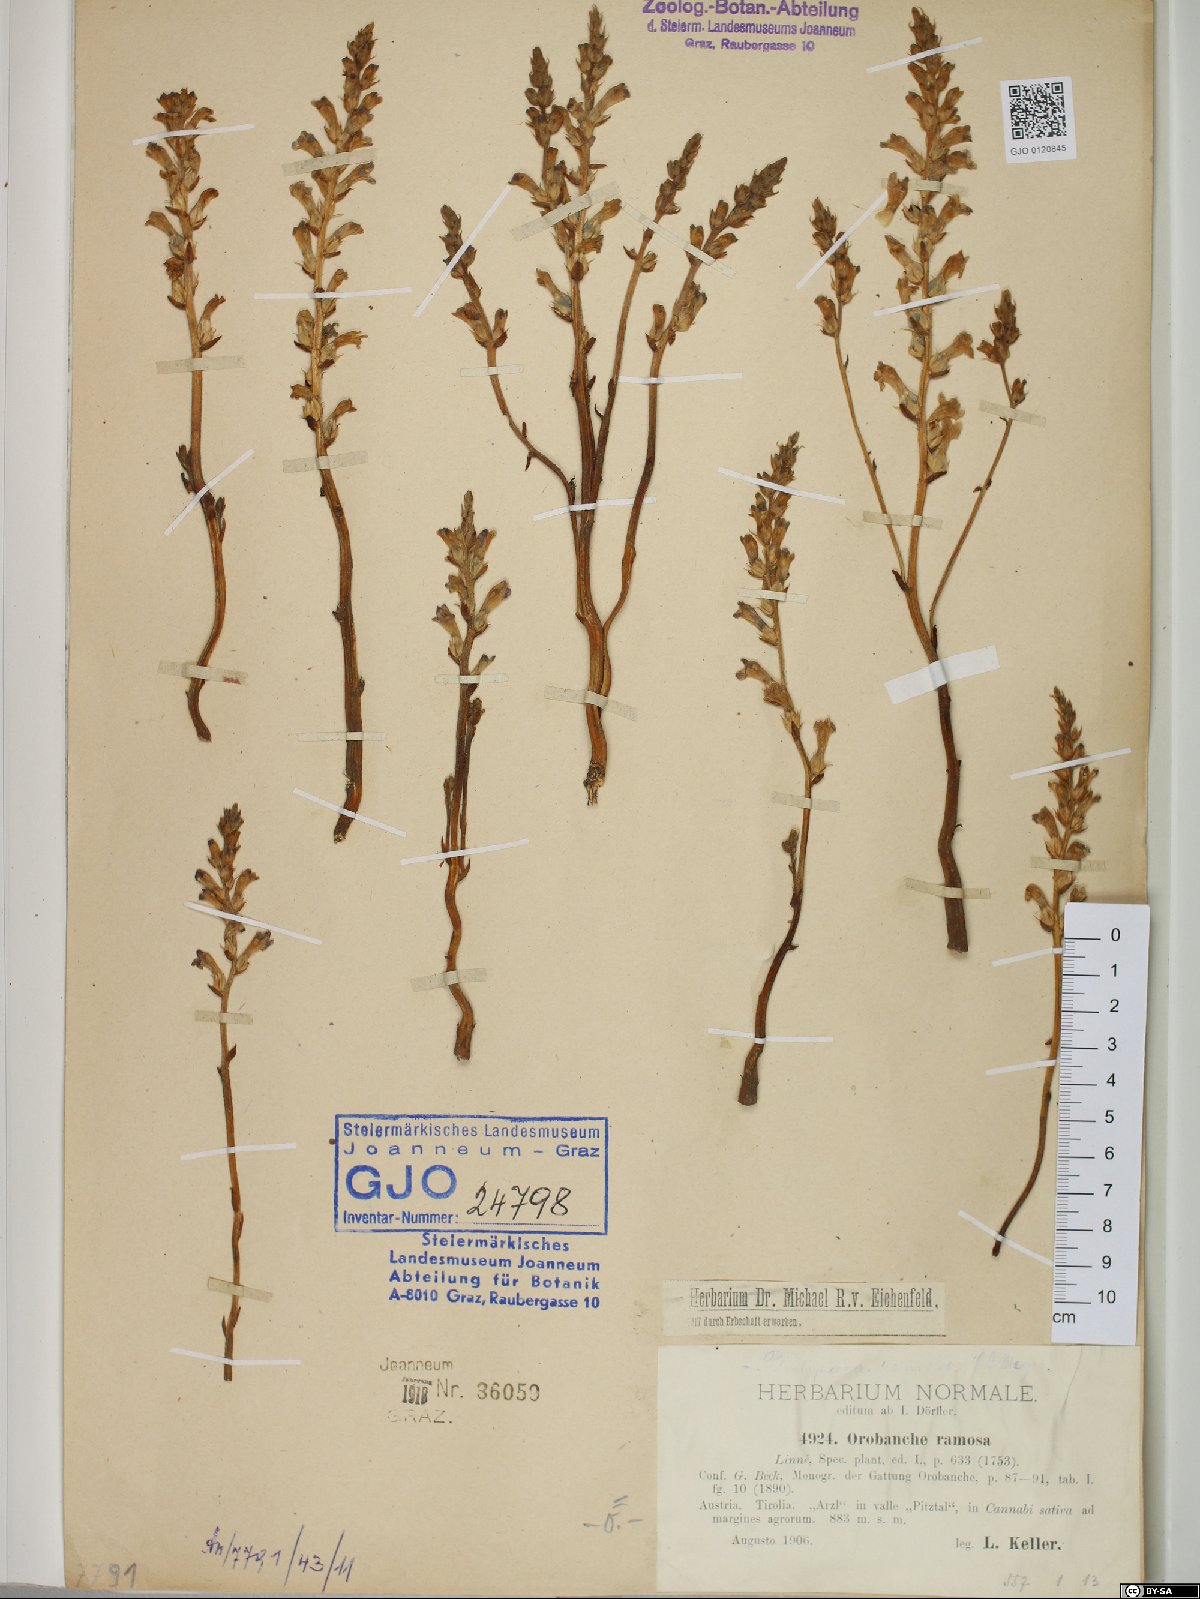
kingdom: Plantae
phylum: Tracheophyta
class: Magnoliopsida
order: Lamiales
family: Orobanchaceae
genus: Phelipanche
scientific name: Phelipanche ramosa
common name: Branched broomrape
